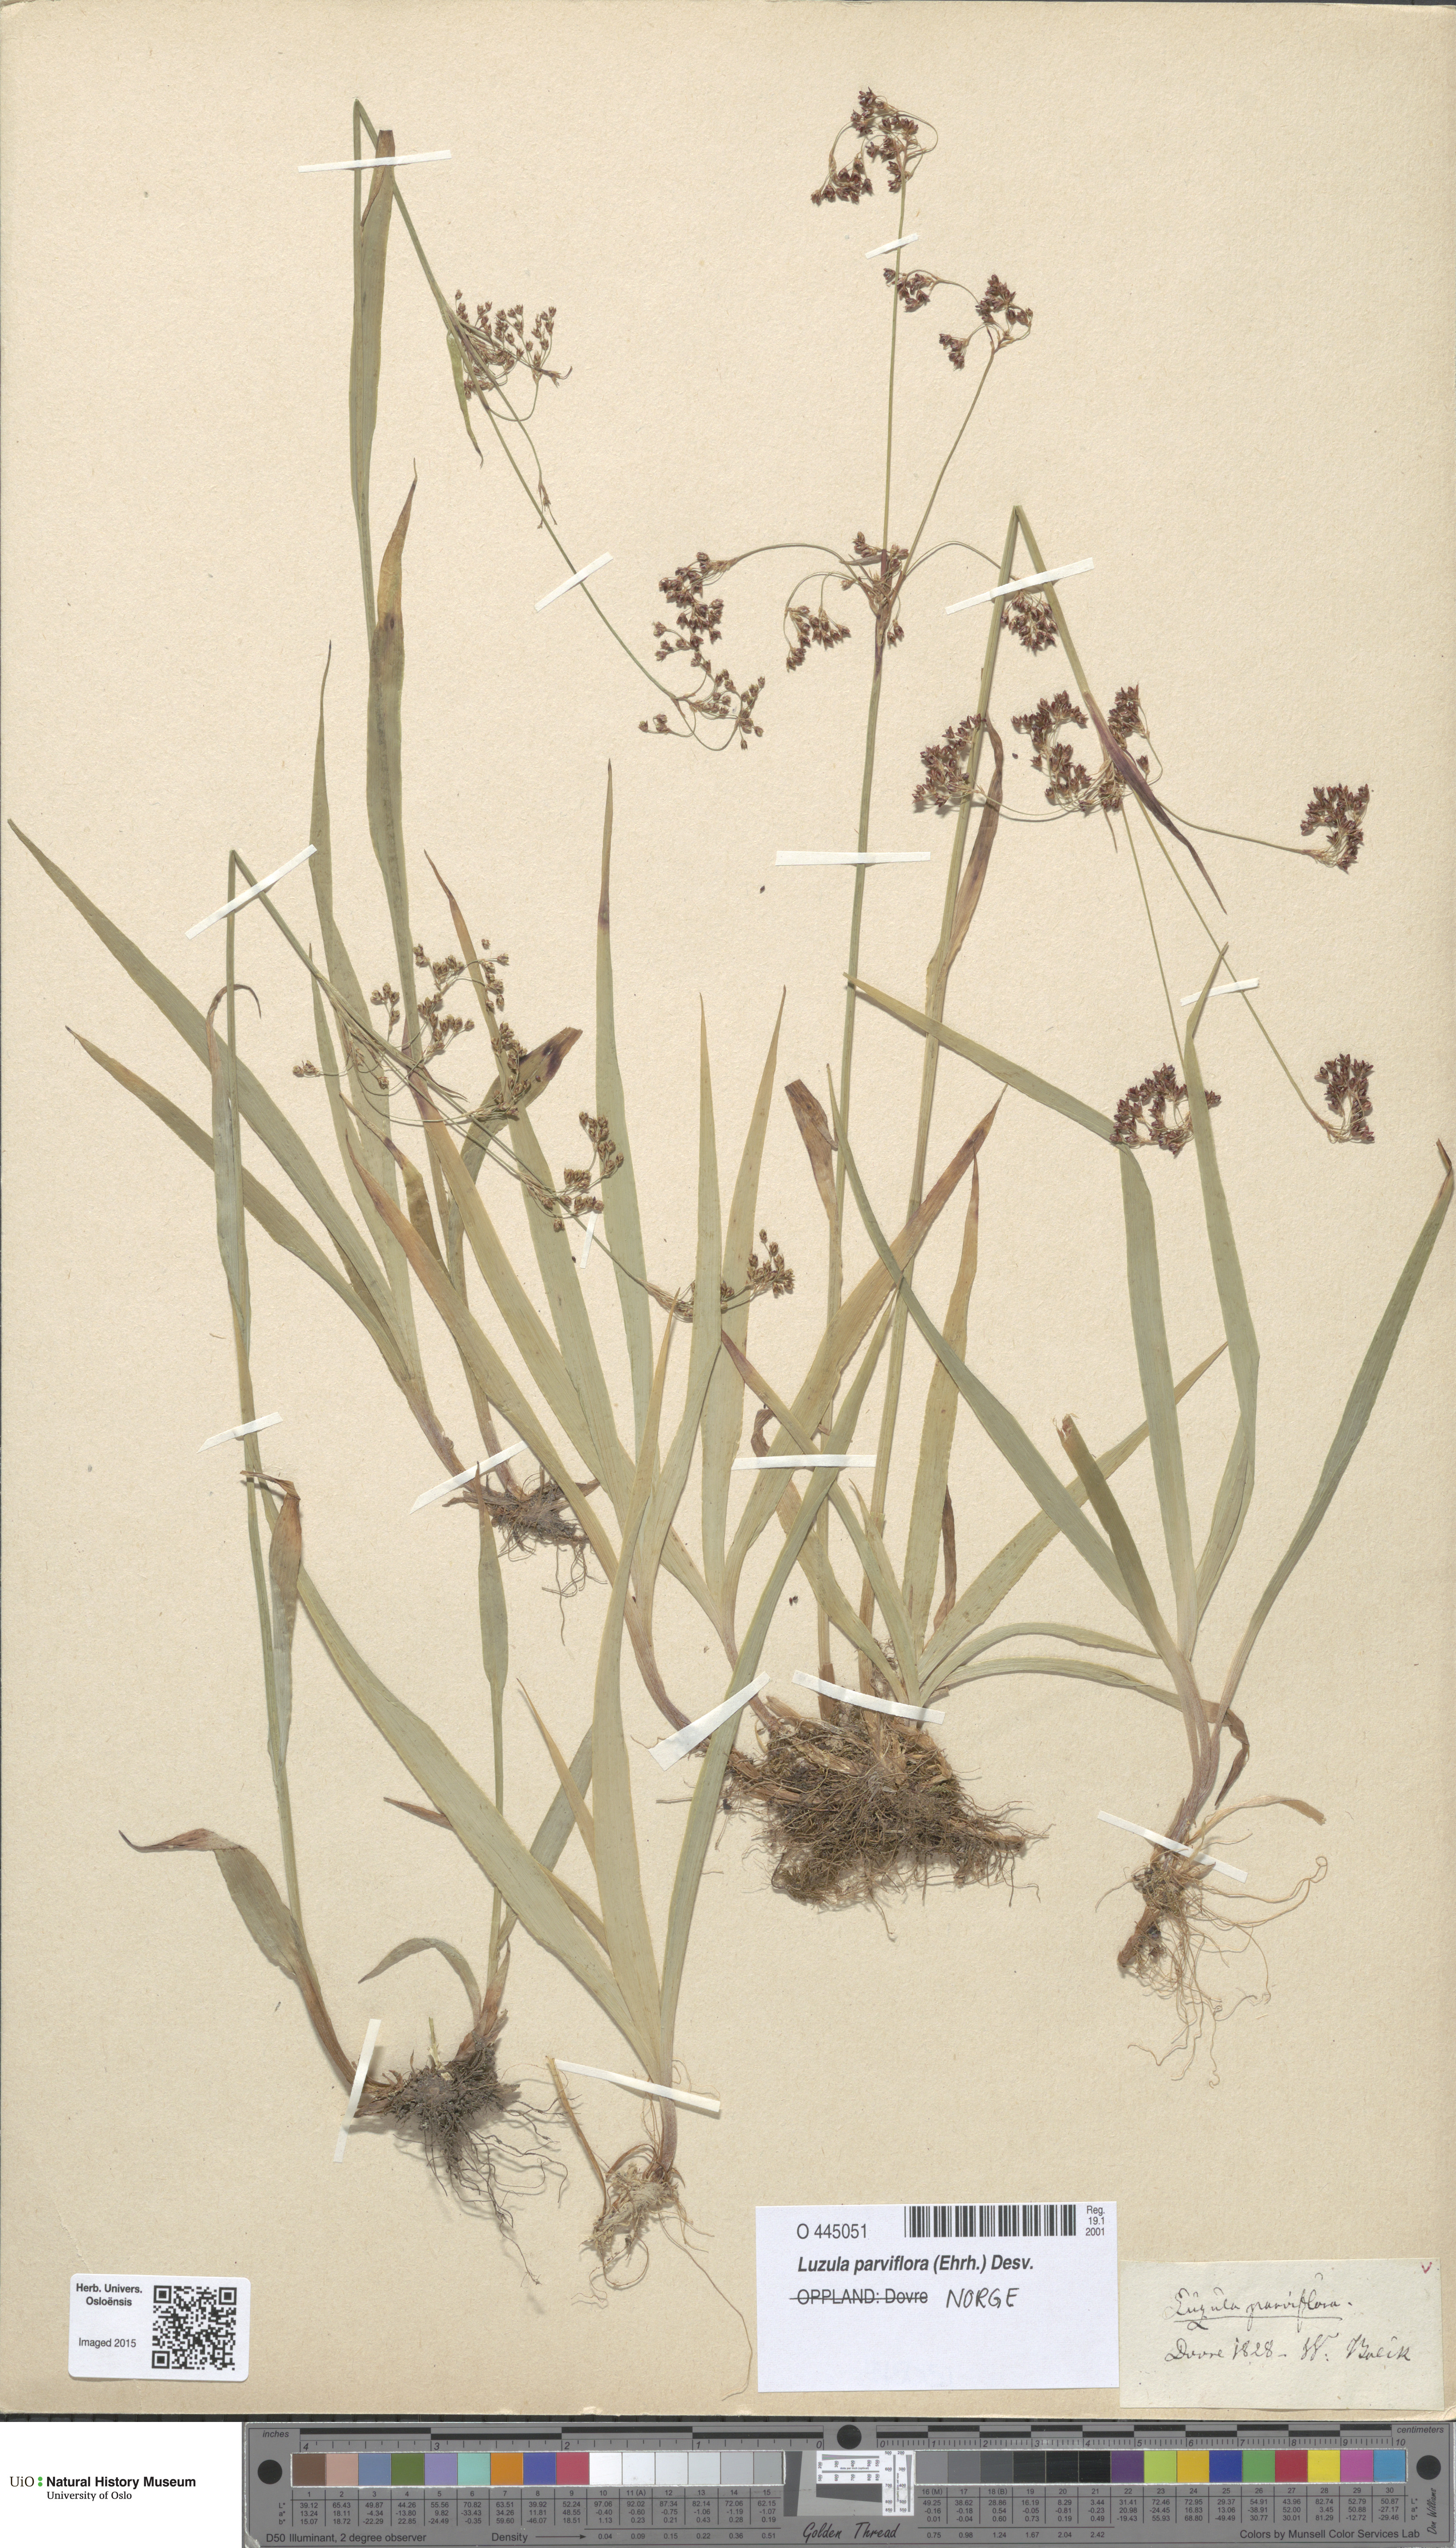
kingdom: Plantae
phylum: Tracheophyta
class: Liliopsida
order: Poales
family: Juncaceae
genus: Luzula
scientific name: Luzula parviflora
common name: Millet woodrush
